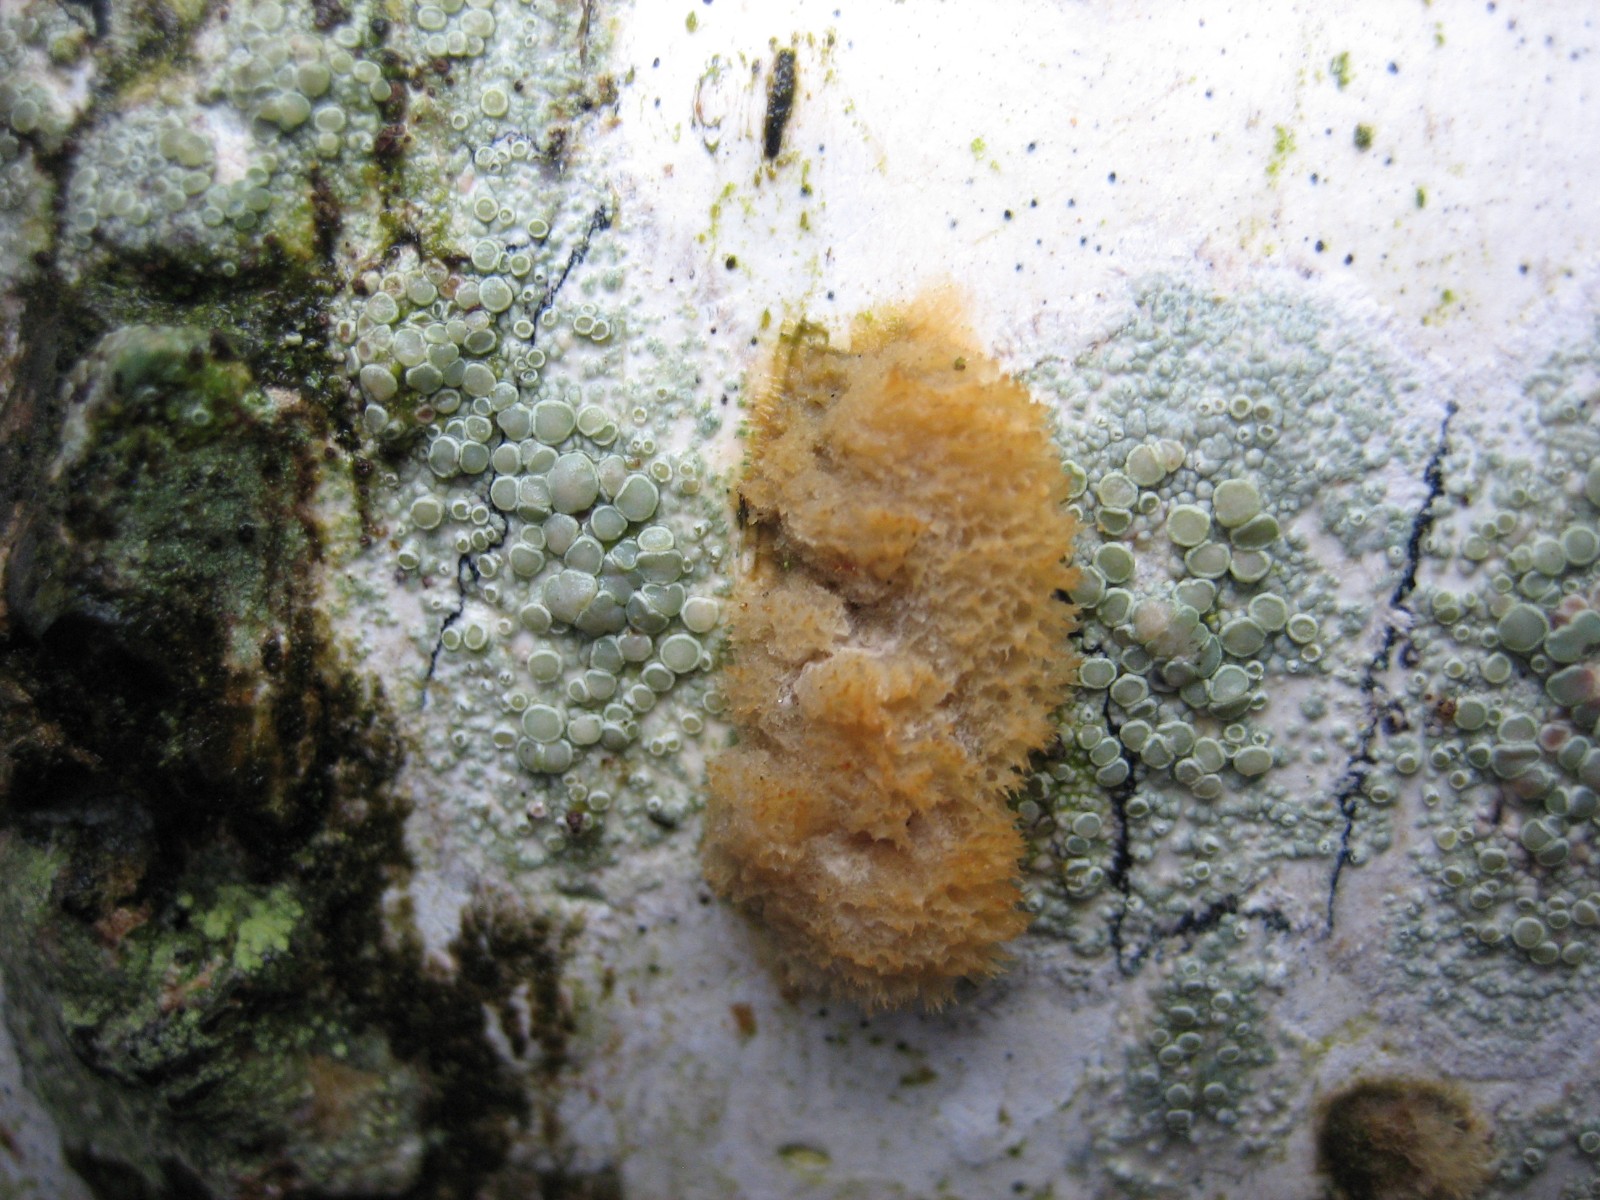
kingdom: Fungi
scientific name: Fungi
